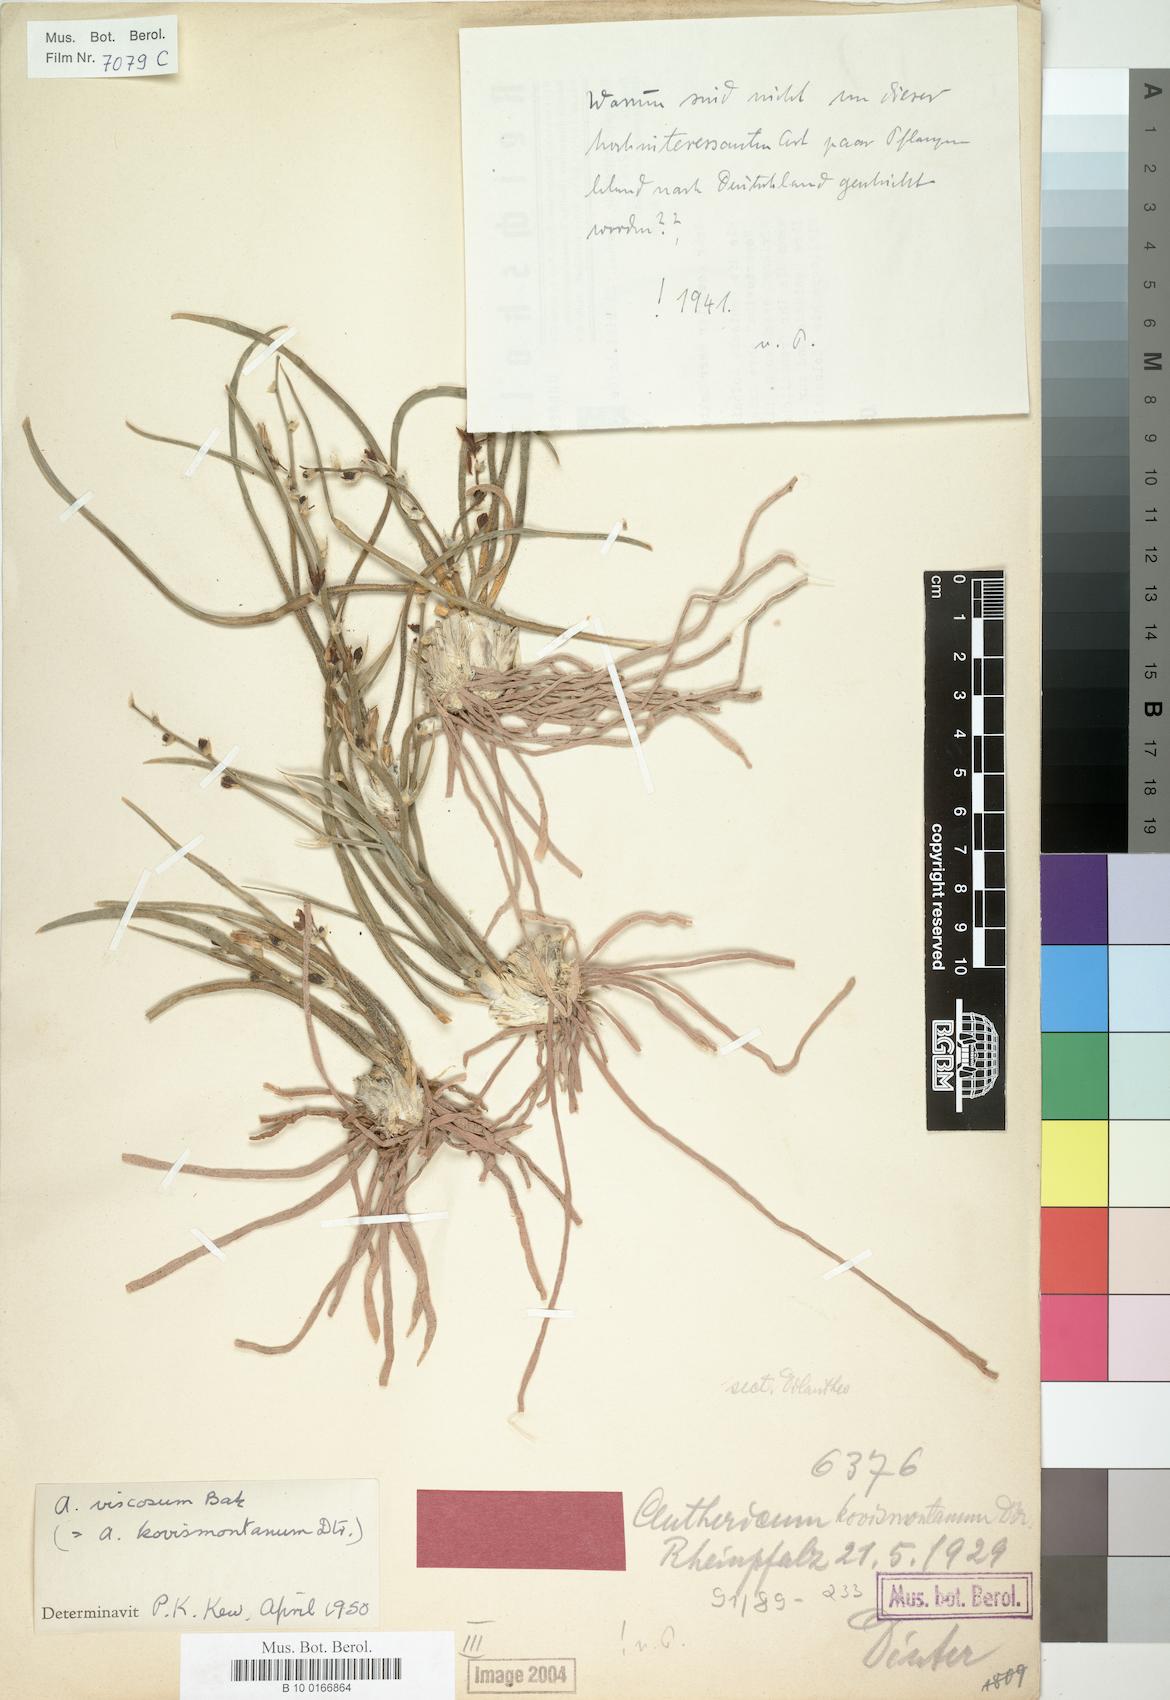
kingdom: Plantae
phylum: Tracheophyta
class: Liliopsida
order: Asparagales
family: Asparagaceae
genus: Chlorophytum
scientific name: Chlorophytum viscosum
